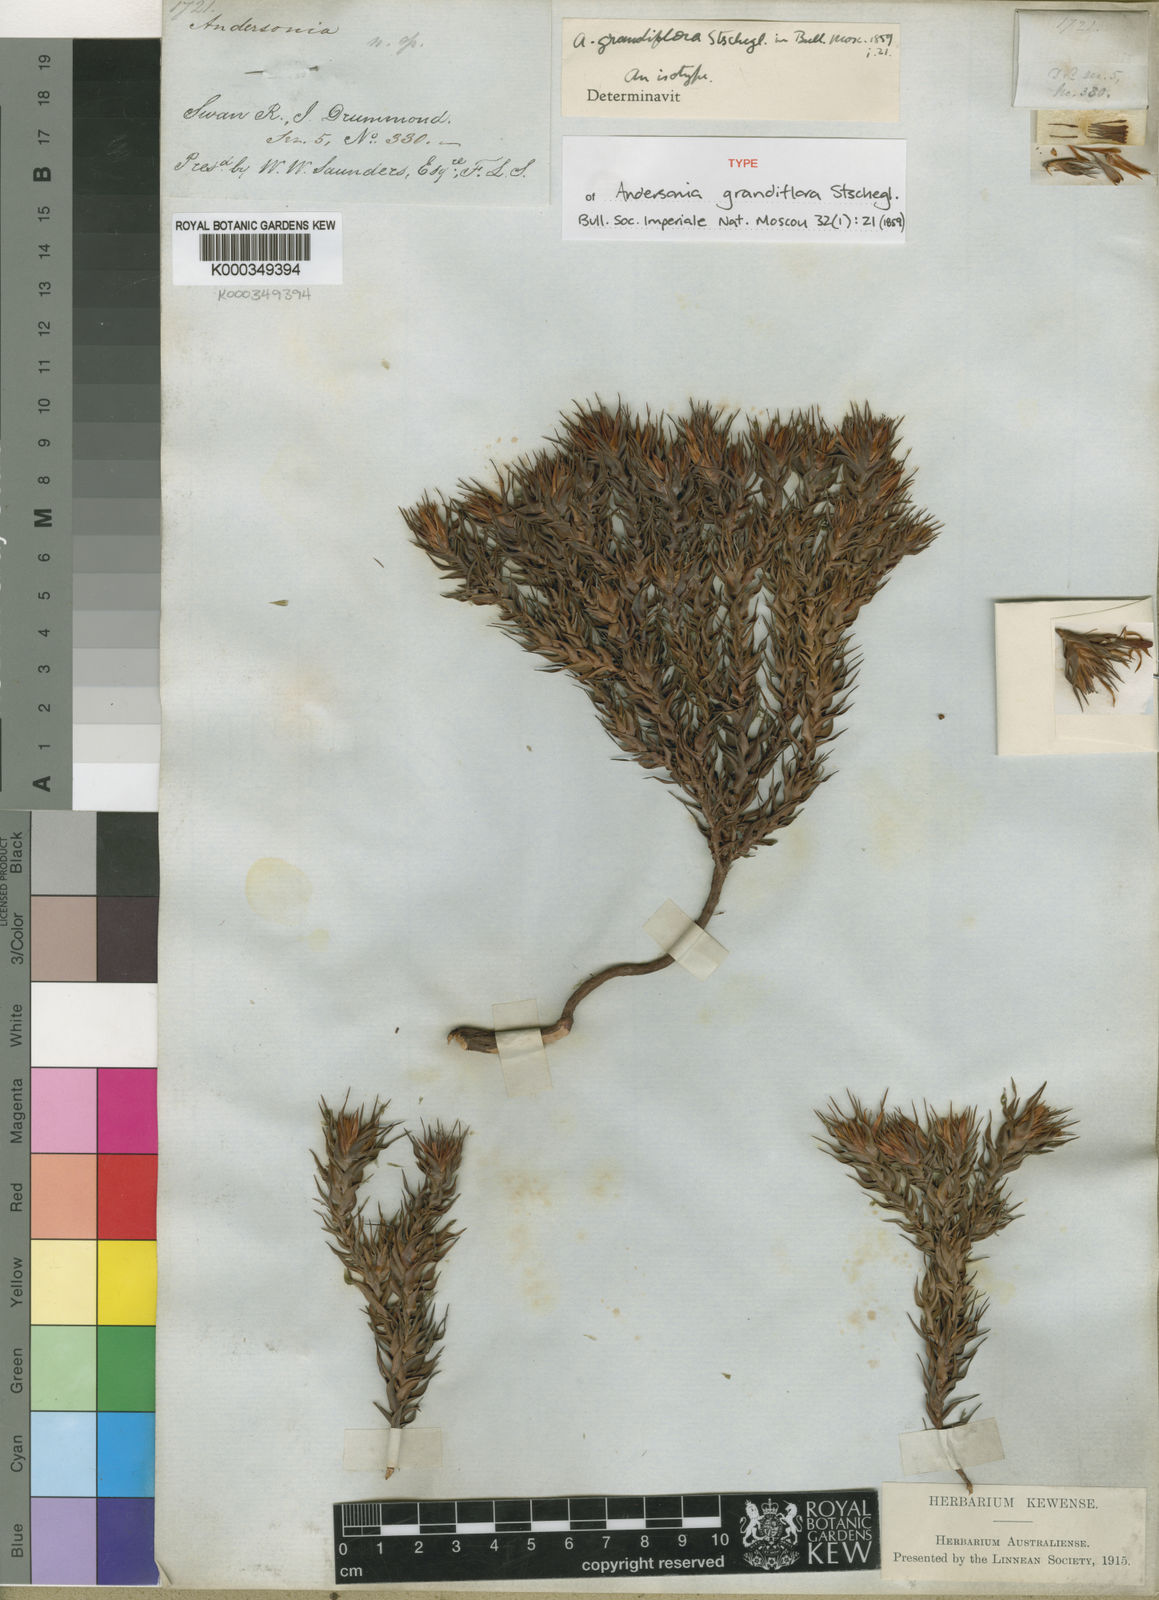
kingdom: Plantae
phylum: Tracheophyta
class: Magnoliopsida
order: Ericales
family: Ericaceae
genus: Andersonia
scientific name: Andersonia grandiflora
